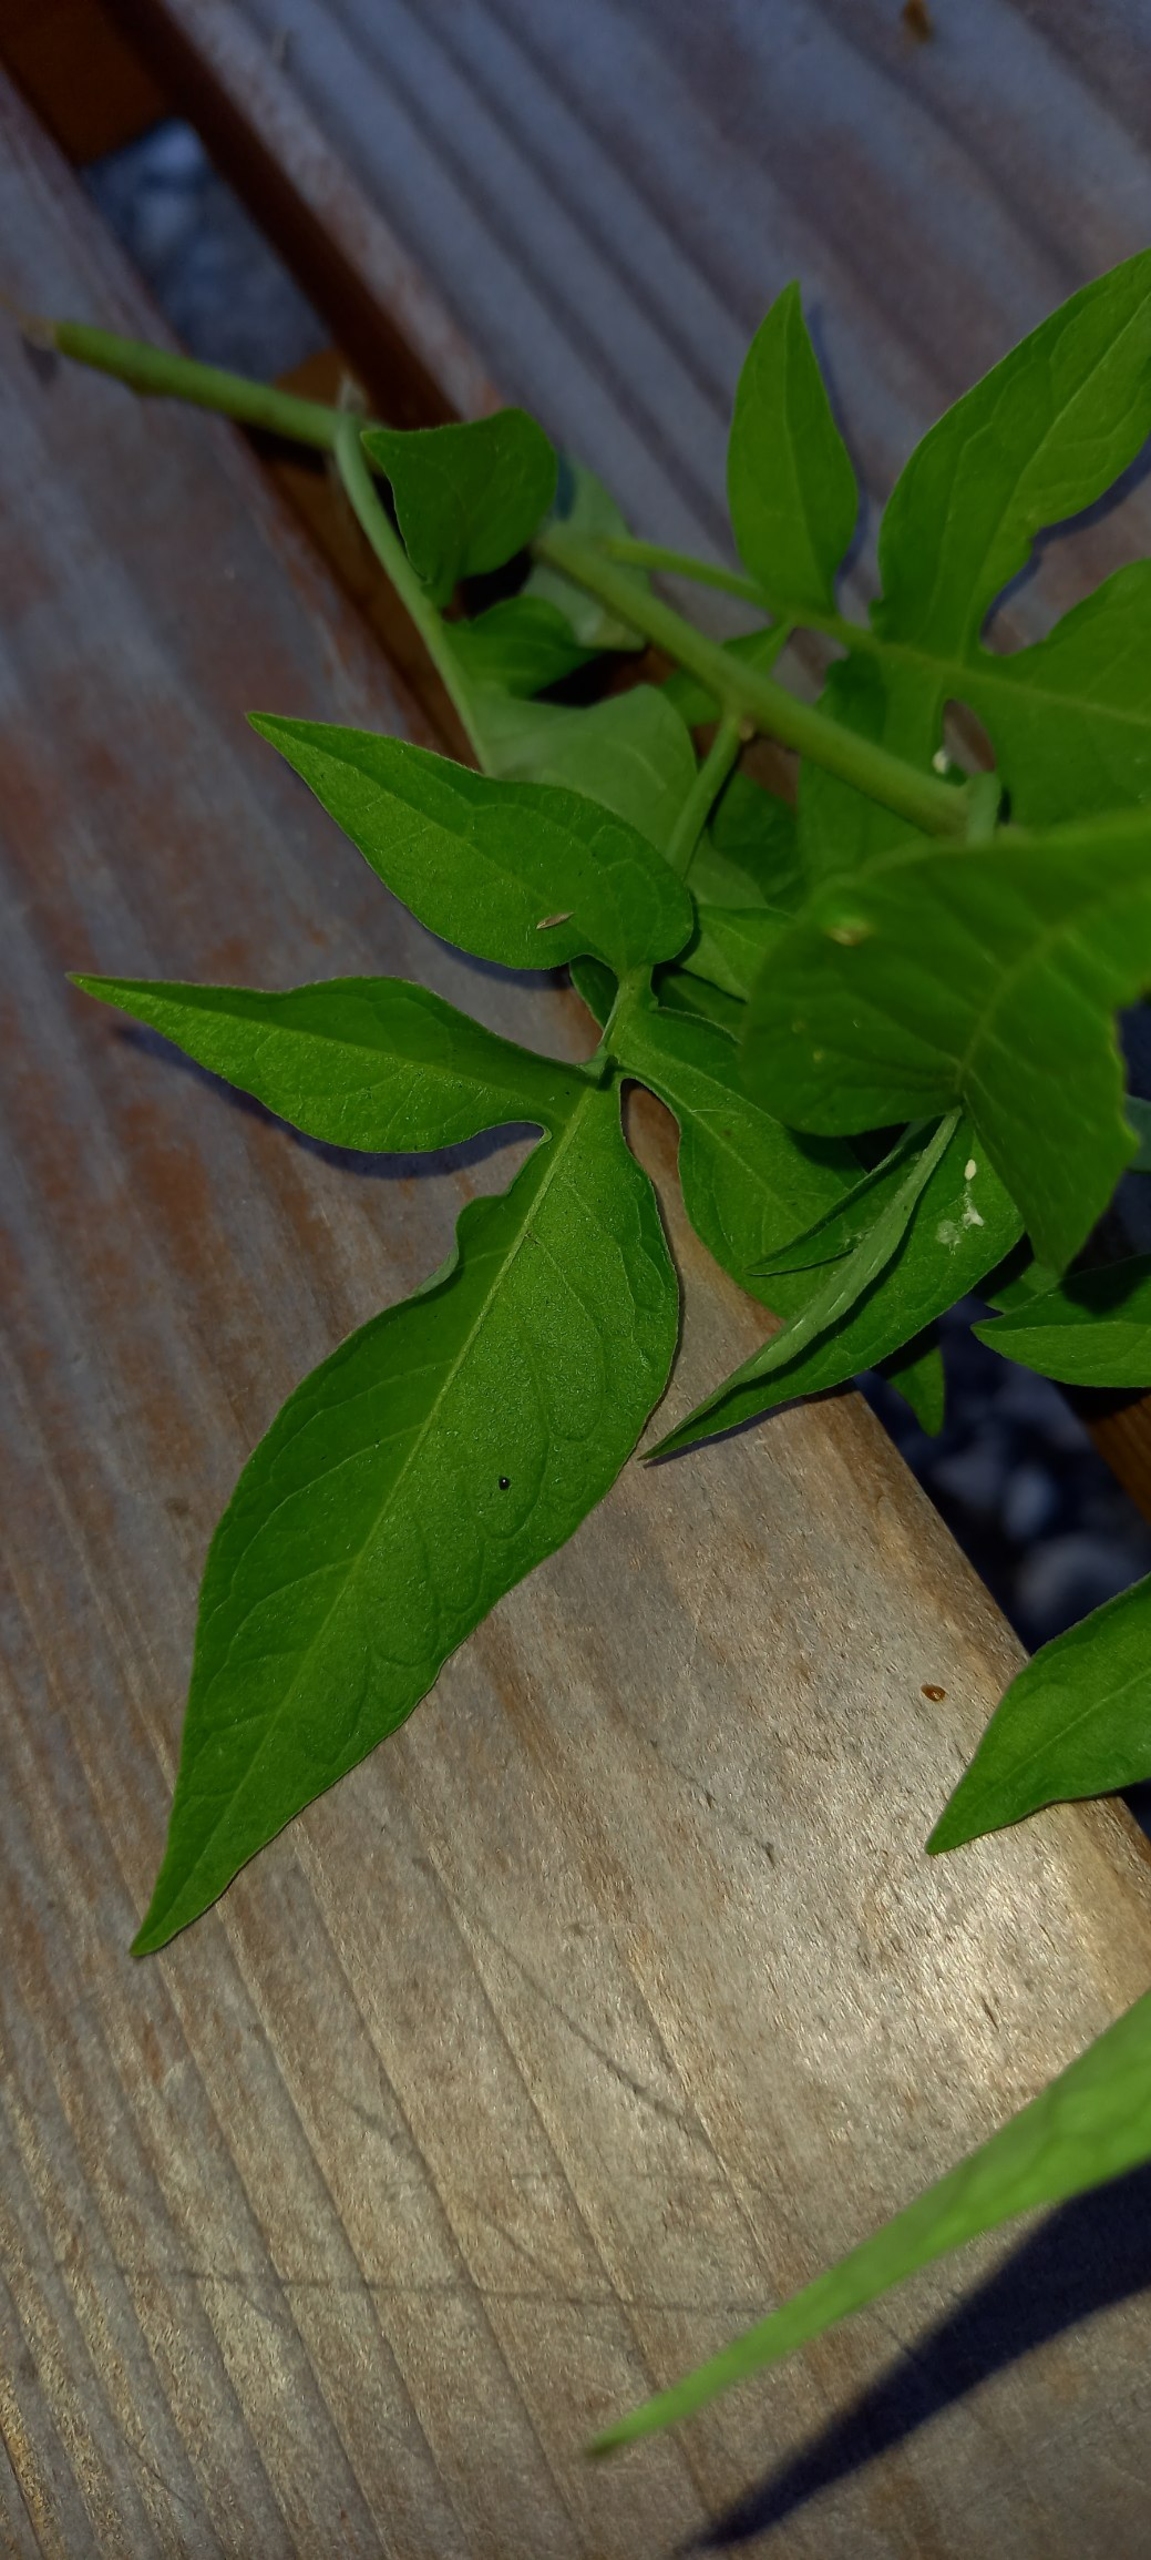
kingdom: Plantae
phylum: Tracheophyta
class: Magnoliopsida
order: Solanales
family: Solanaceae
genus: Solanum
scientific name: Solanum dulcamara
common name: Bittersød natskygge
